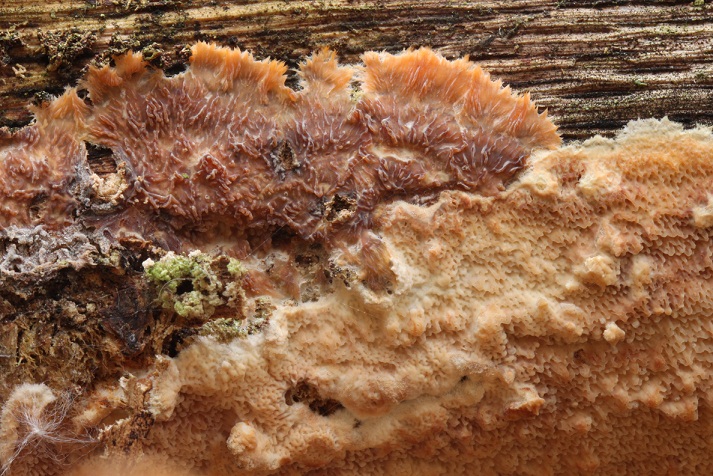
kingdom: Fungi
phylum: Basidiomycota
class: Agaricomycetes
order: Polyporales
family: Meruliaceae
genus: Phlebia
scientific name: Phlebia rufa
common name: ege-åresvamp
